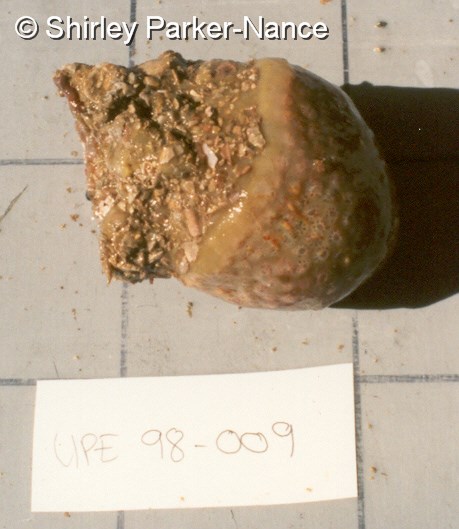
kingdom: Animalia
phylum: Chordata
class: Ascidiacea
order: Aplousobranchia
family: Polyclinidae
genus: Synoicum
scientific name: Synoicum
